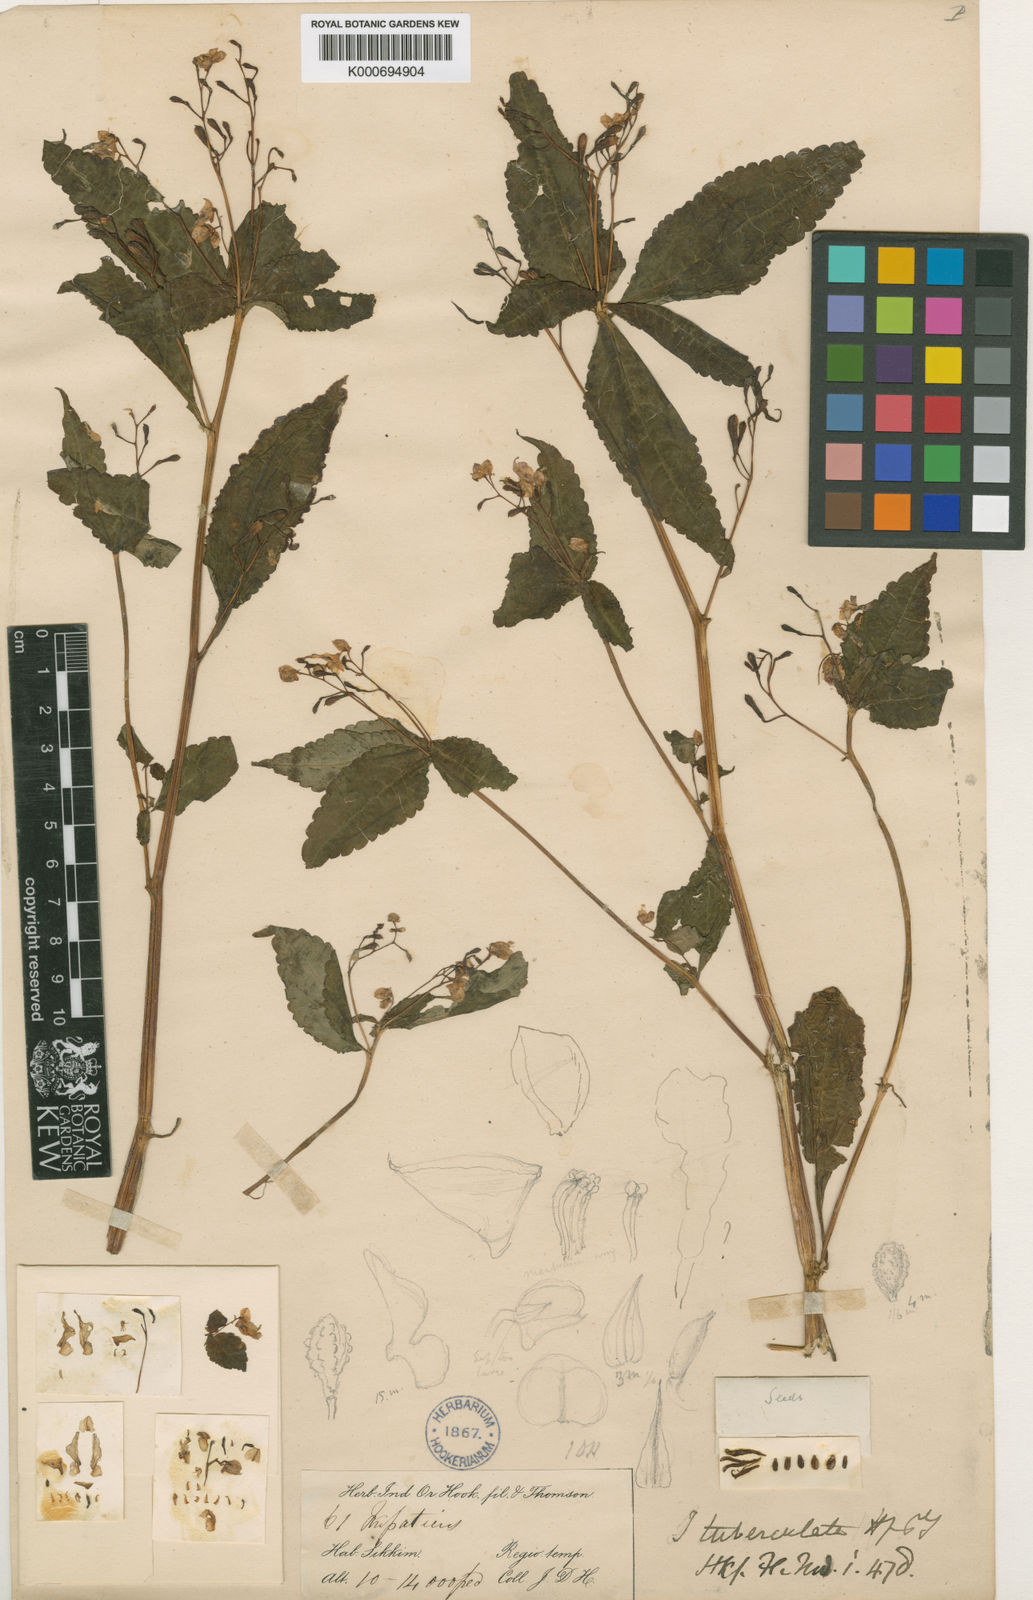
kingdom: Plantae
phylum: Tracheophyta
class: Magnoliopsida
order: Ericales
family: Balsaminaceae
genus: Impatiens
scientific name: Impatiens tuberculata
